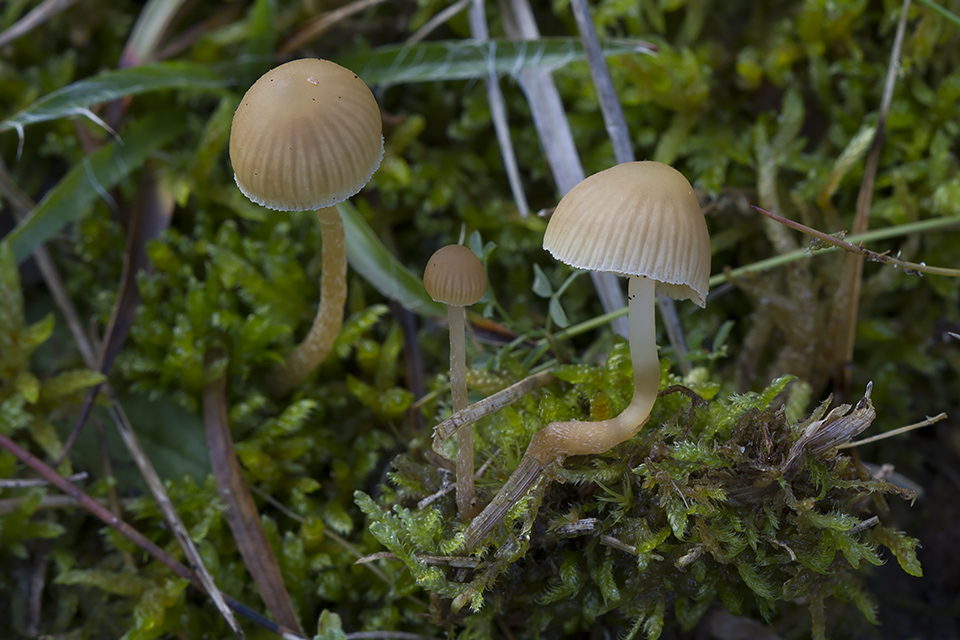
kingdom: Fungi
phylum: Basidiomycota
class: Agaricomycetes
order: Agaricales
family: Hymenogastraceae
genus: Galerina
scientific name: Galerina mniophila
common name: olivengul hjelmhat
